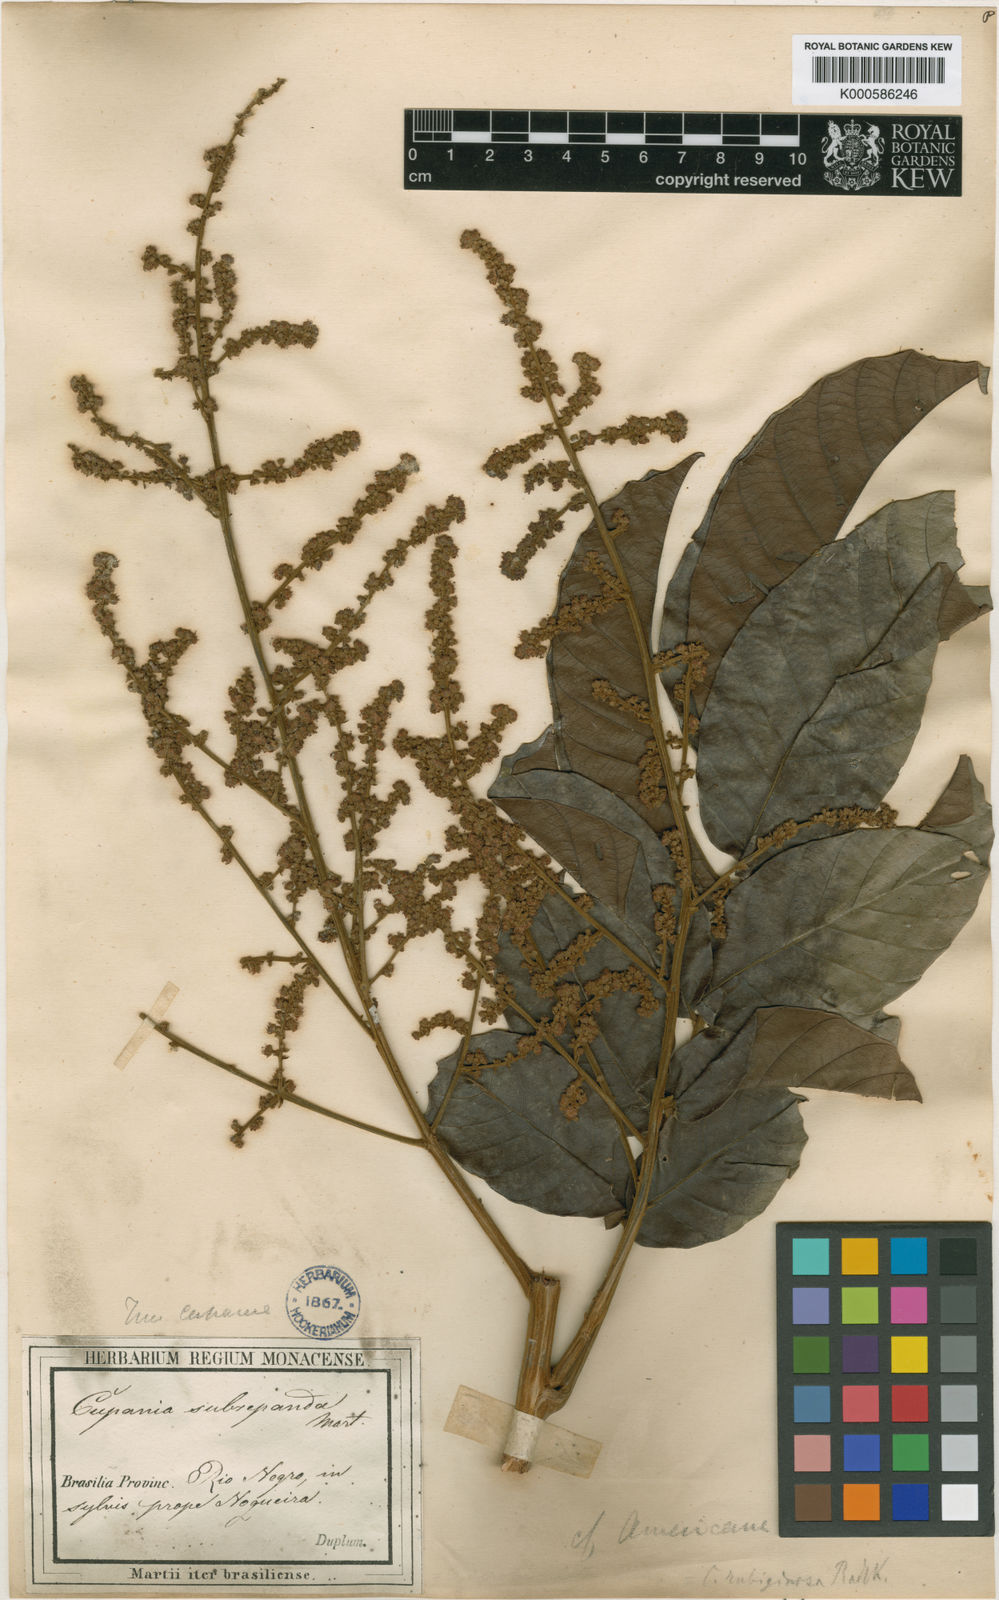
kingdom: Plantae
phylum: Tracheophyta
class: Magnoliopsida
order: Sapindales
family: Sapindaceae
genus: Cupania
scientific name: Cupania rubiginosa
